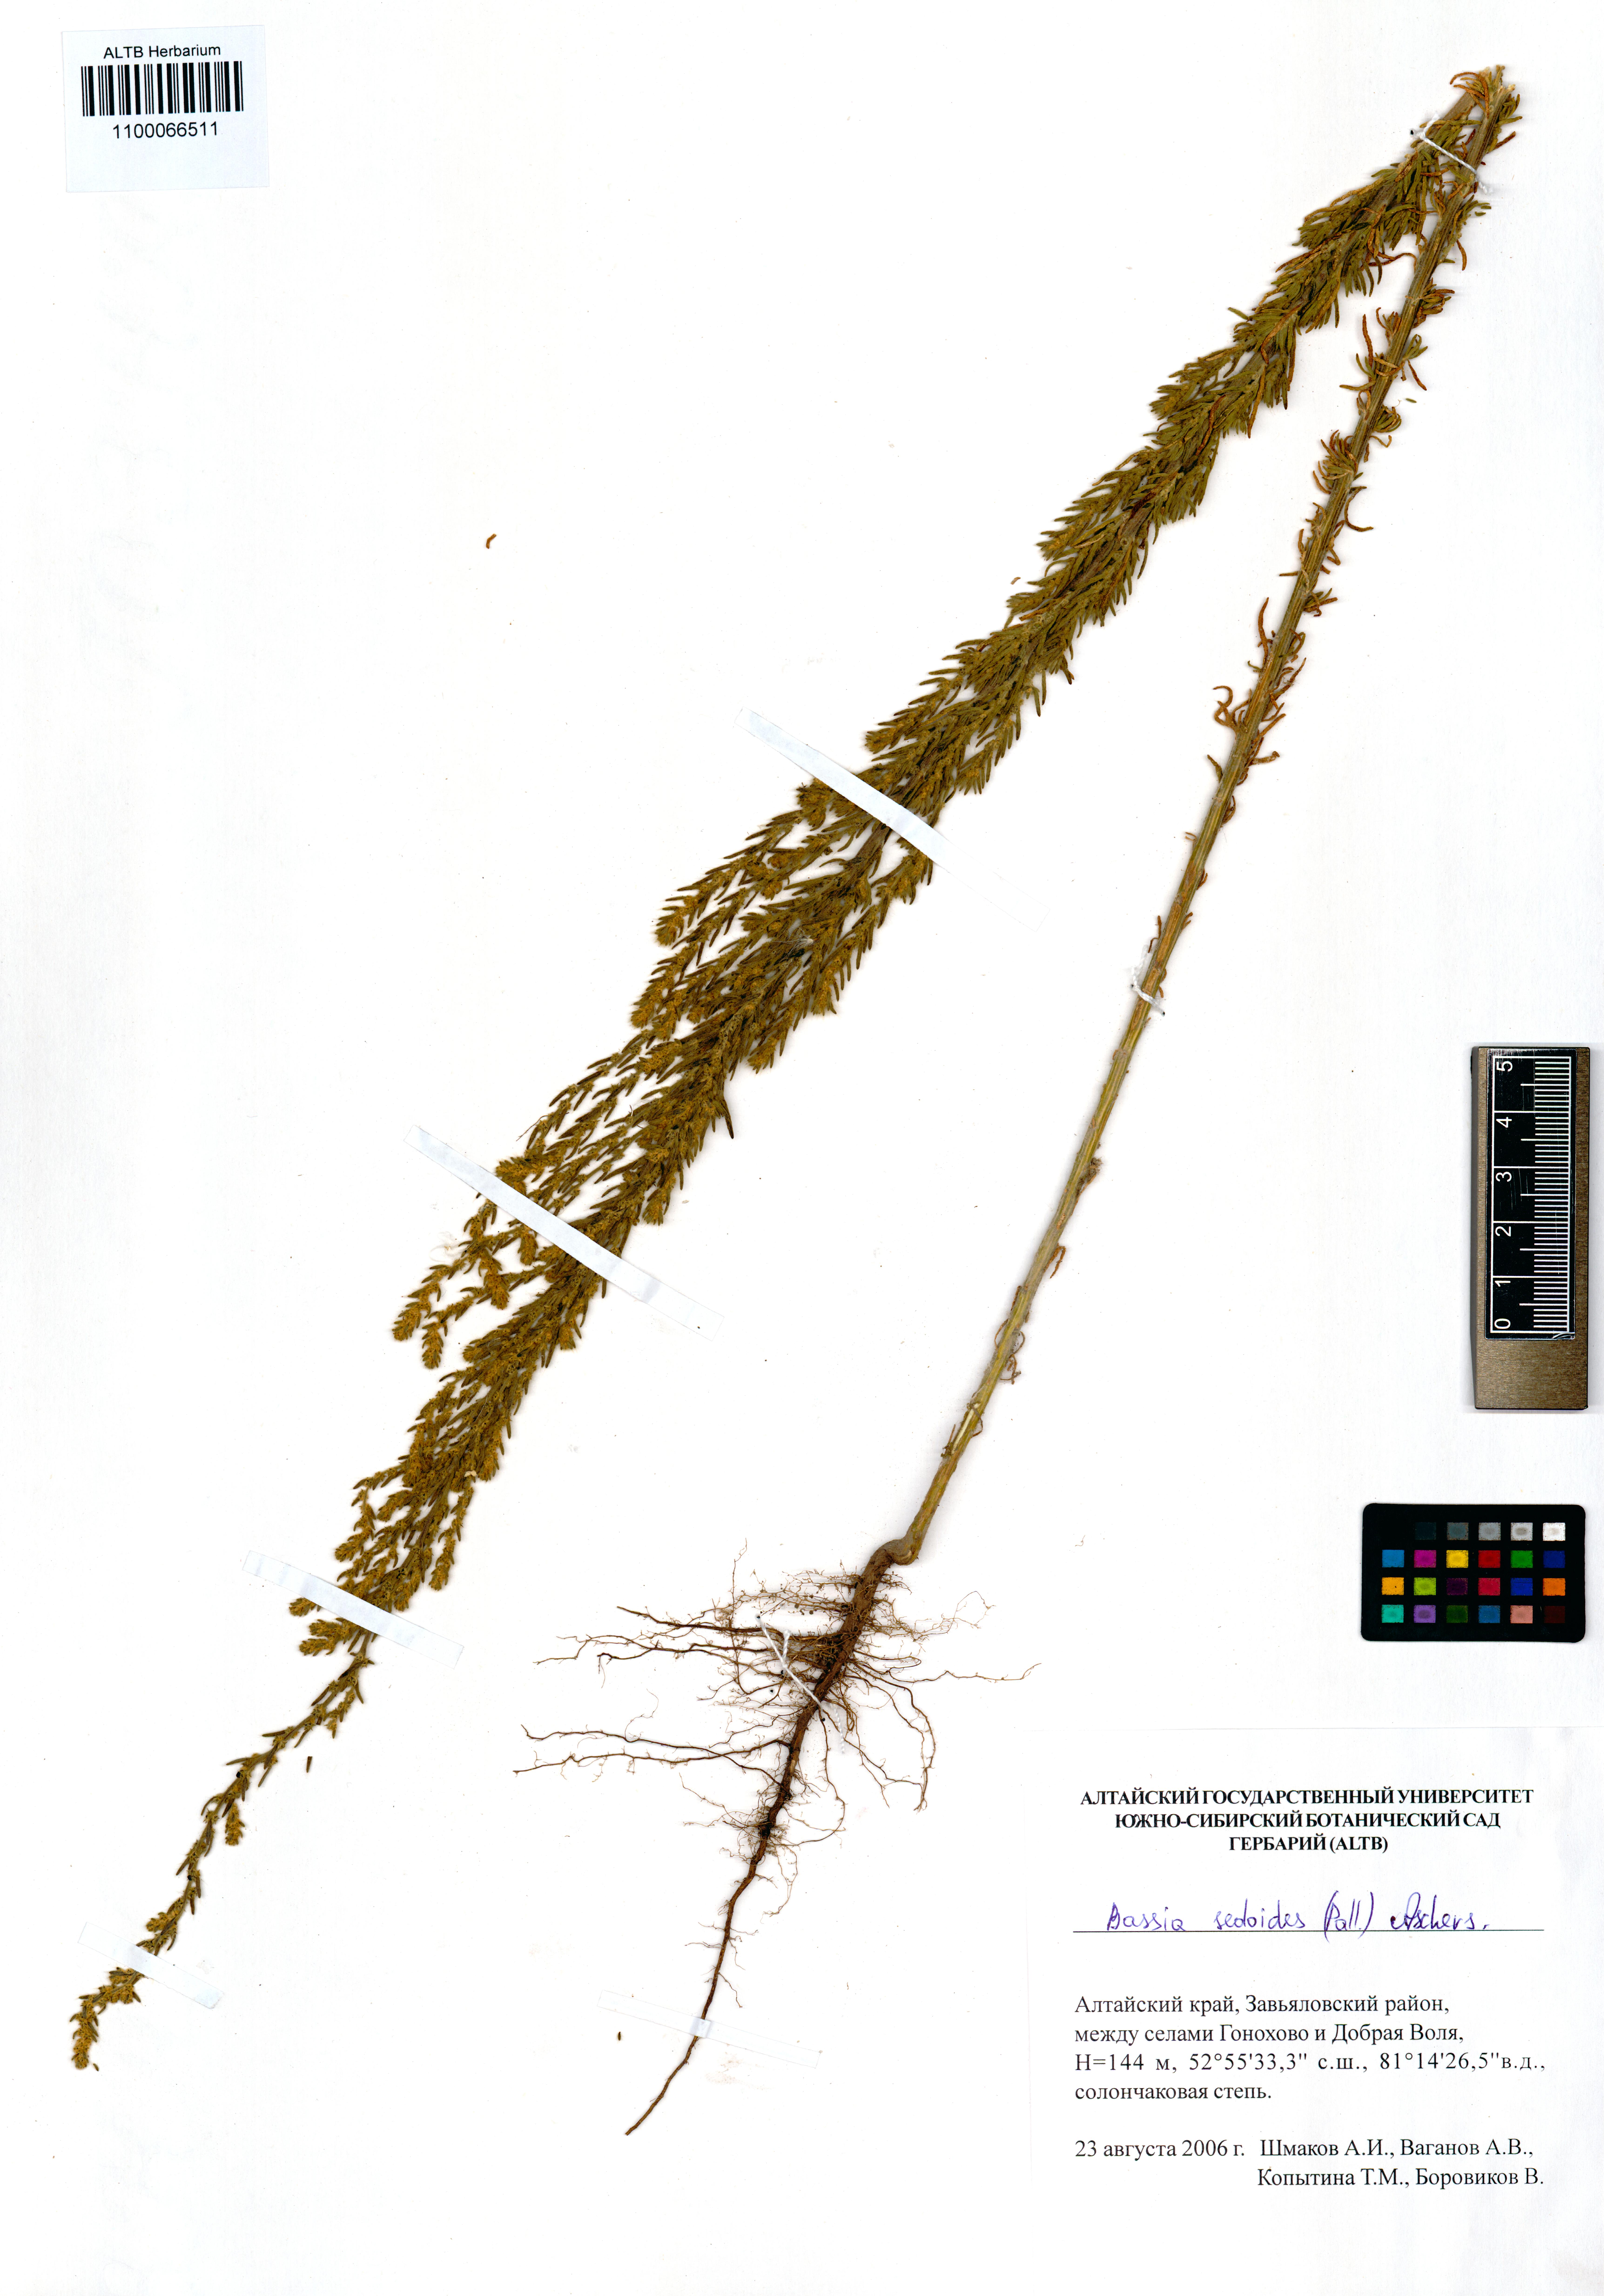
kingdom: Plantae
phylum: Tracheophyta
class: Magnoliopsida
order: Caryophyllales
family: Amaranthaceae
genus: Sedobassia
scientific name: Sedobassia sedoides
